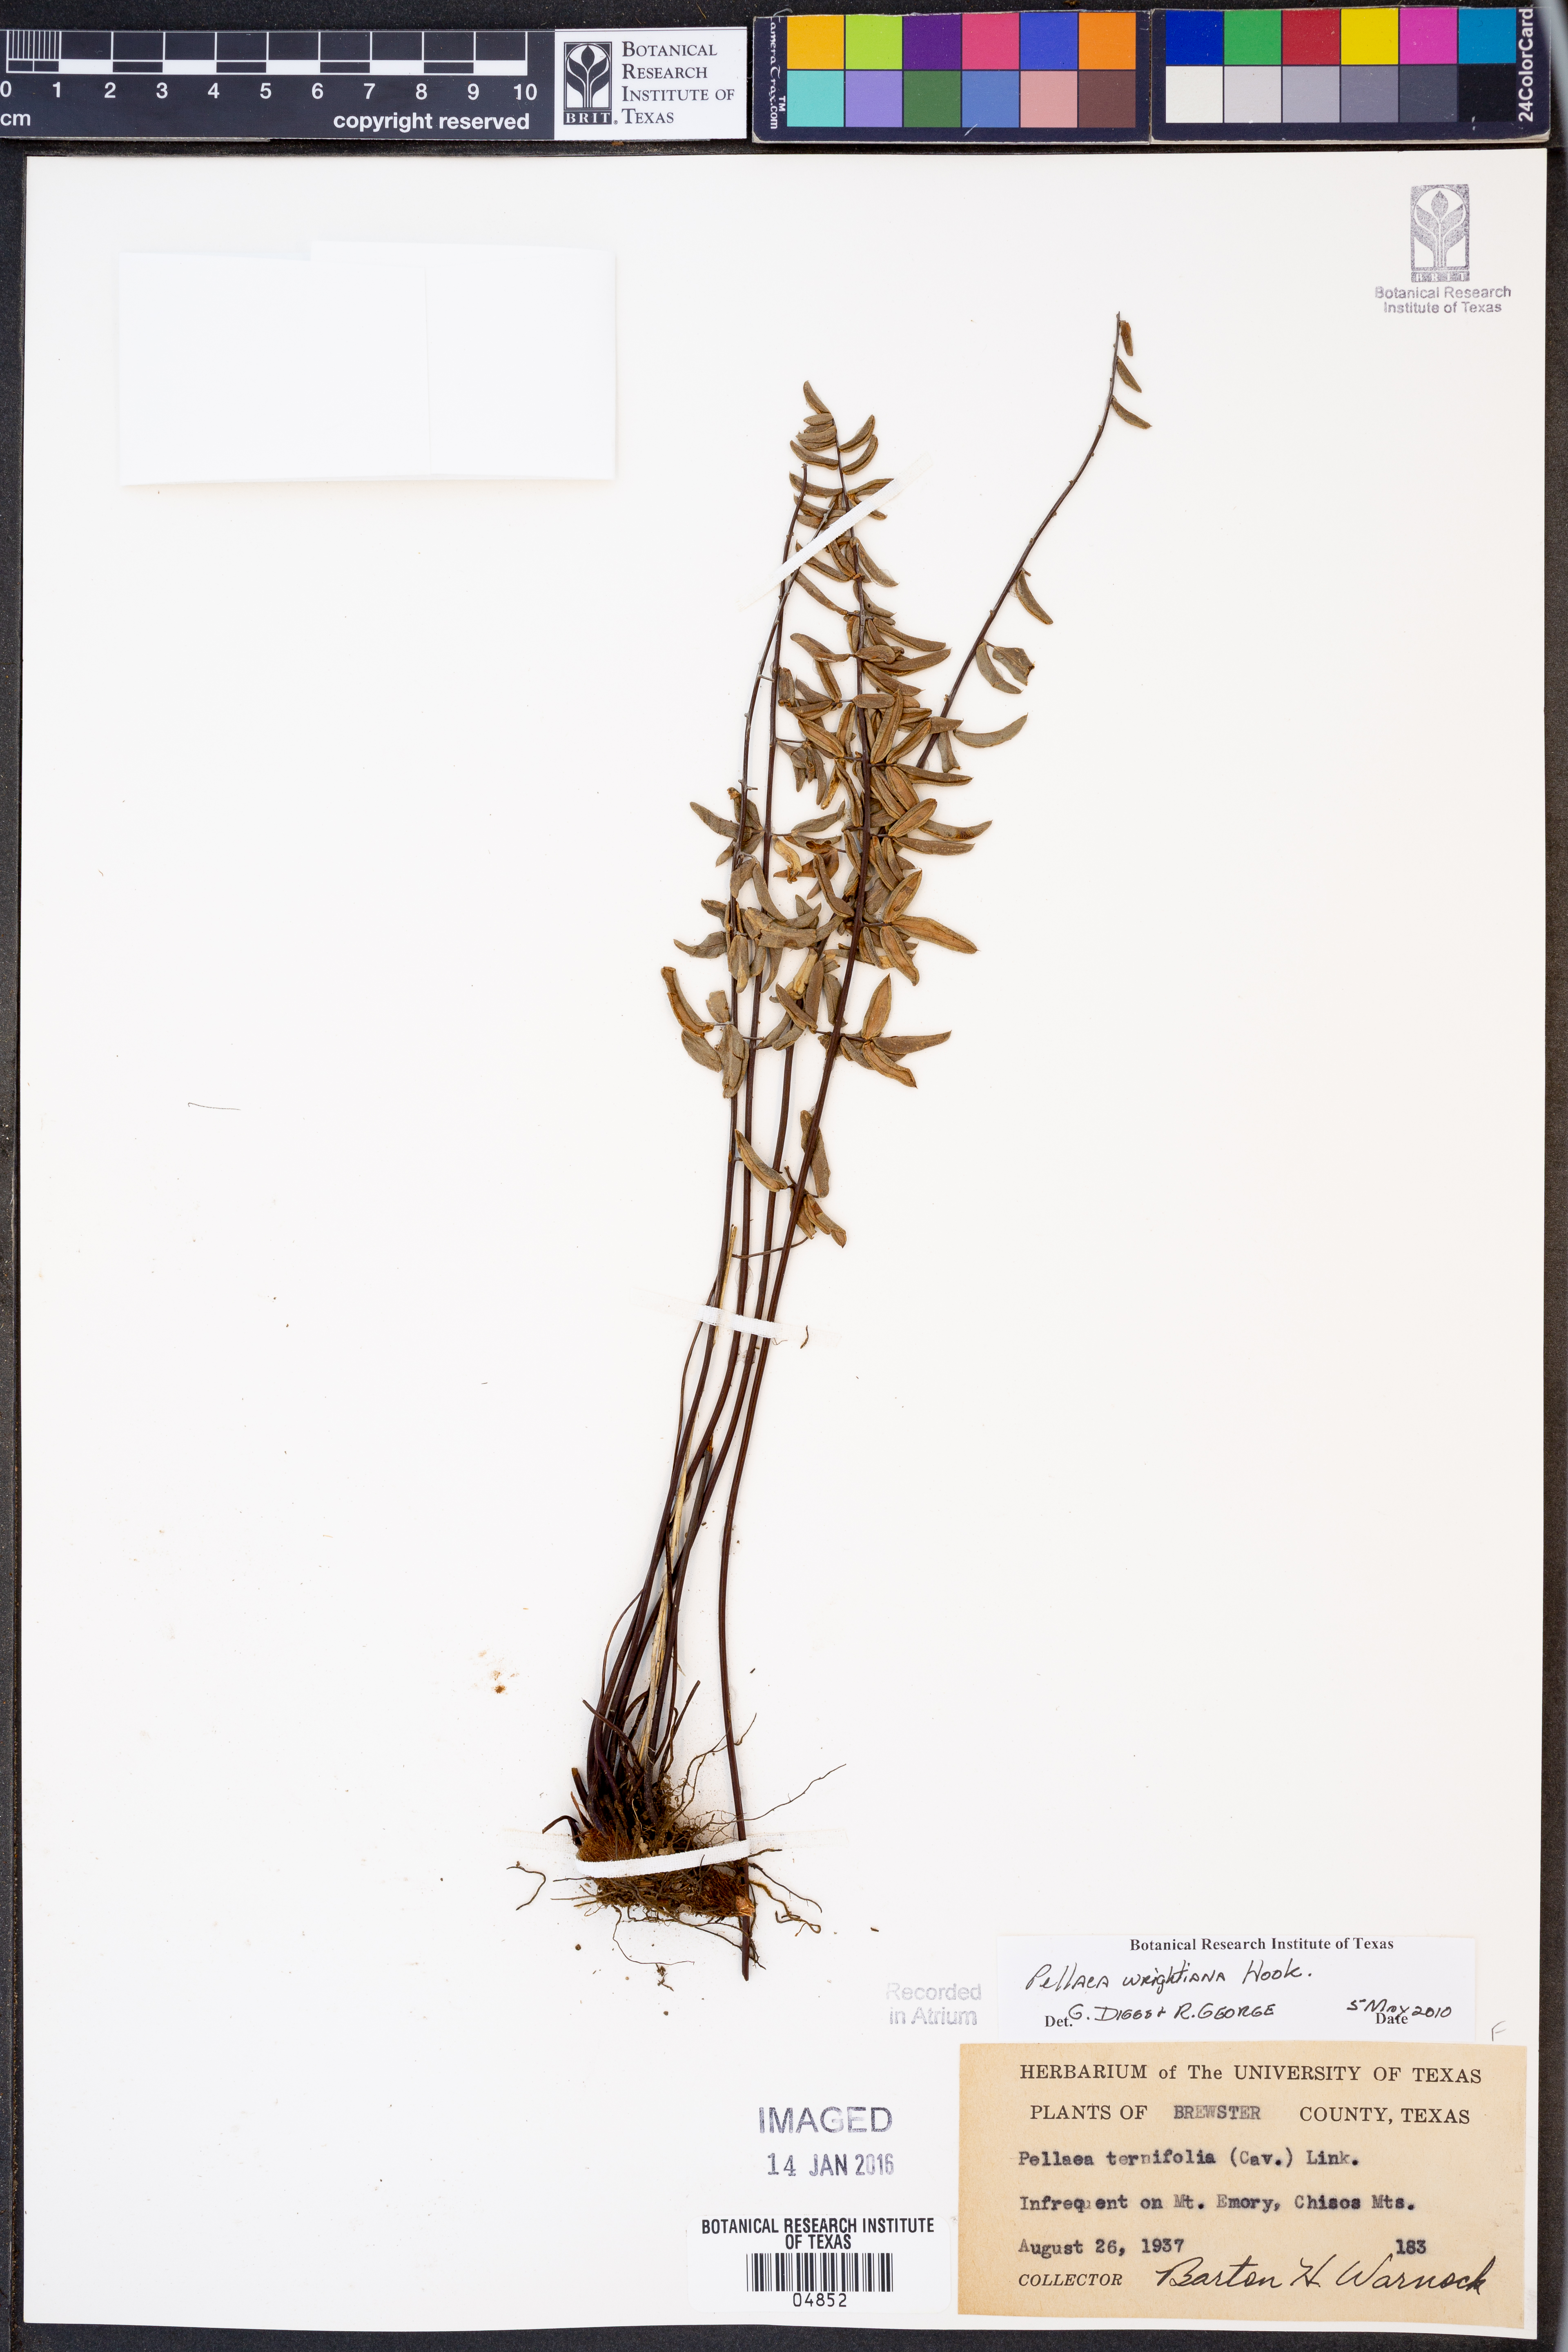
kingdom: Plantae
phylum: Tracheophyta
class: Polypodiopsida
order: Polypodiales
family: Pteridaceae
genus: Pellaea
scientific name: Pellaea wrightiana
